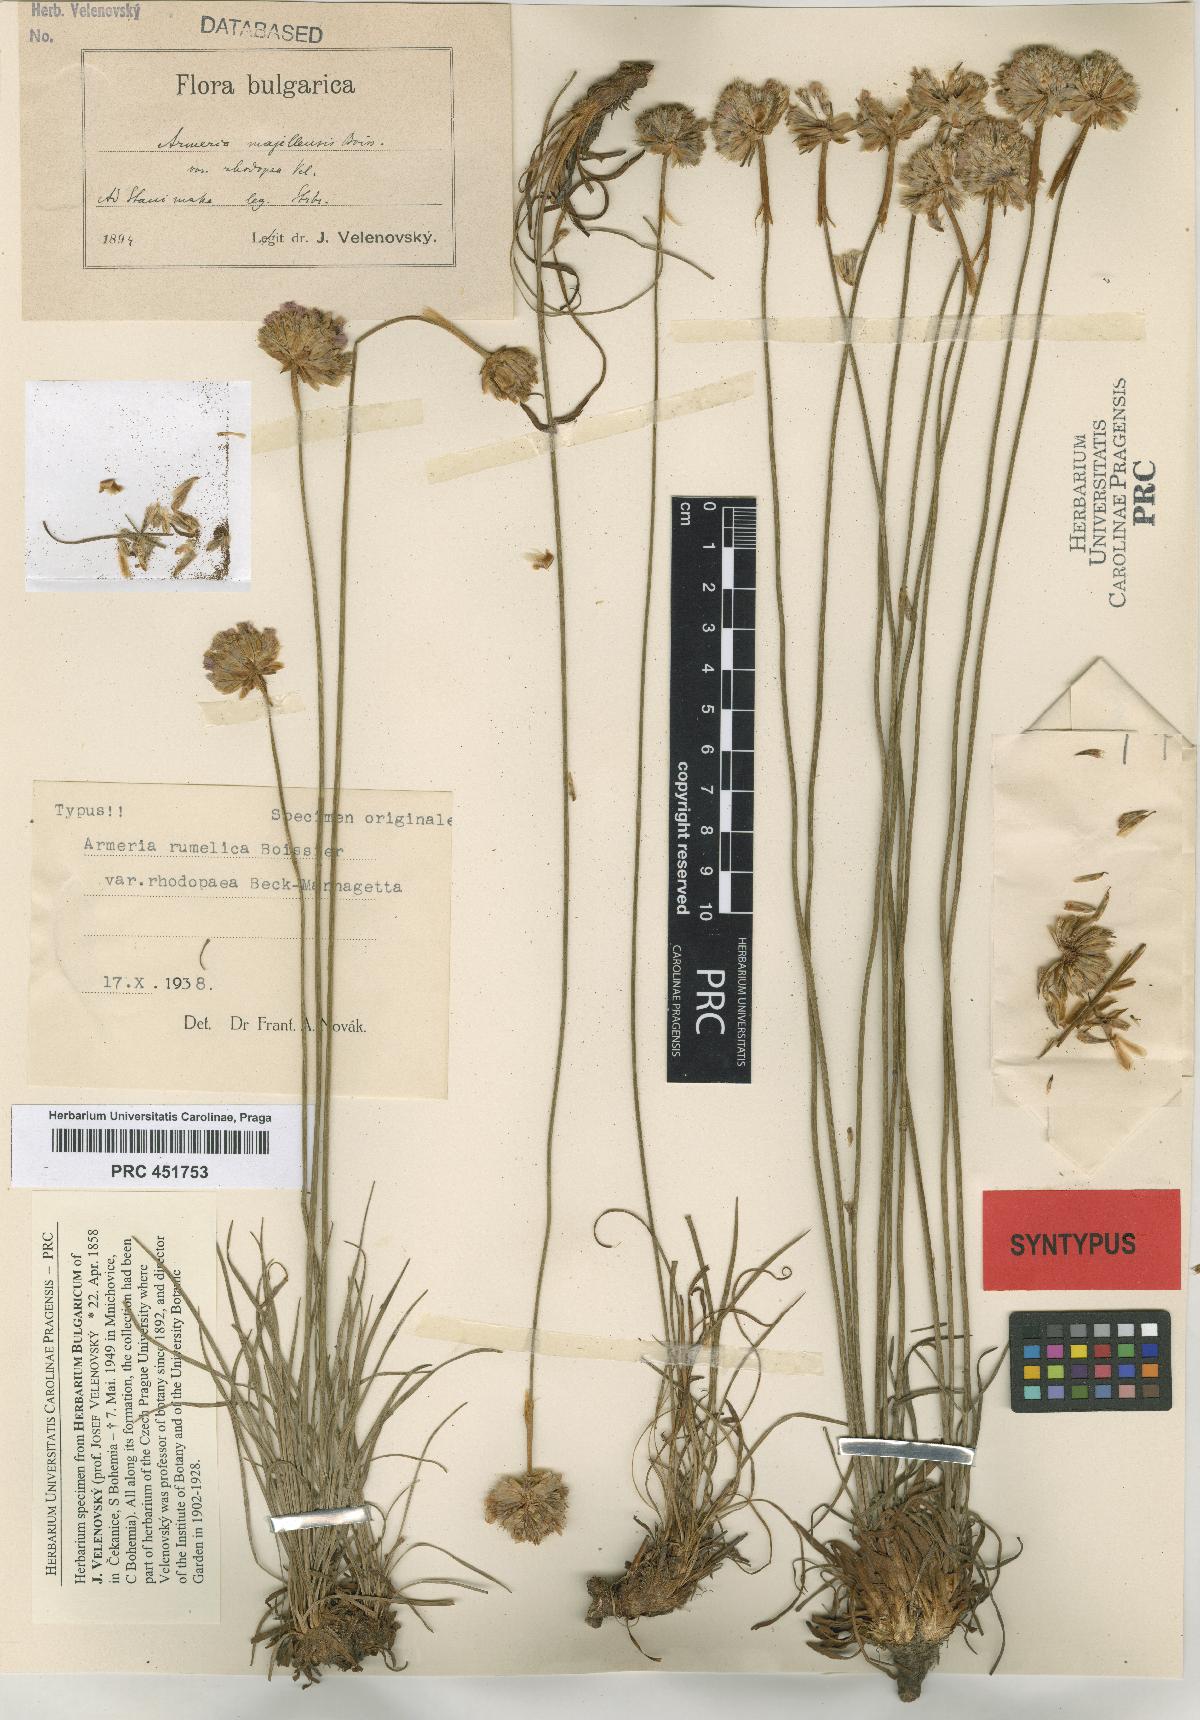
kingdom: Plantae
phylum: Tracheophyta
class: Magnoliopsida
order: Caryophyllales
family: Plumbaginaceae
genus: Armeria
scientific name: Armeria rumelica
